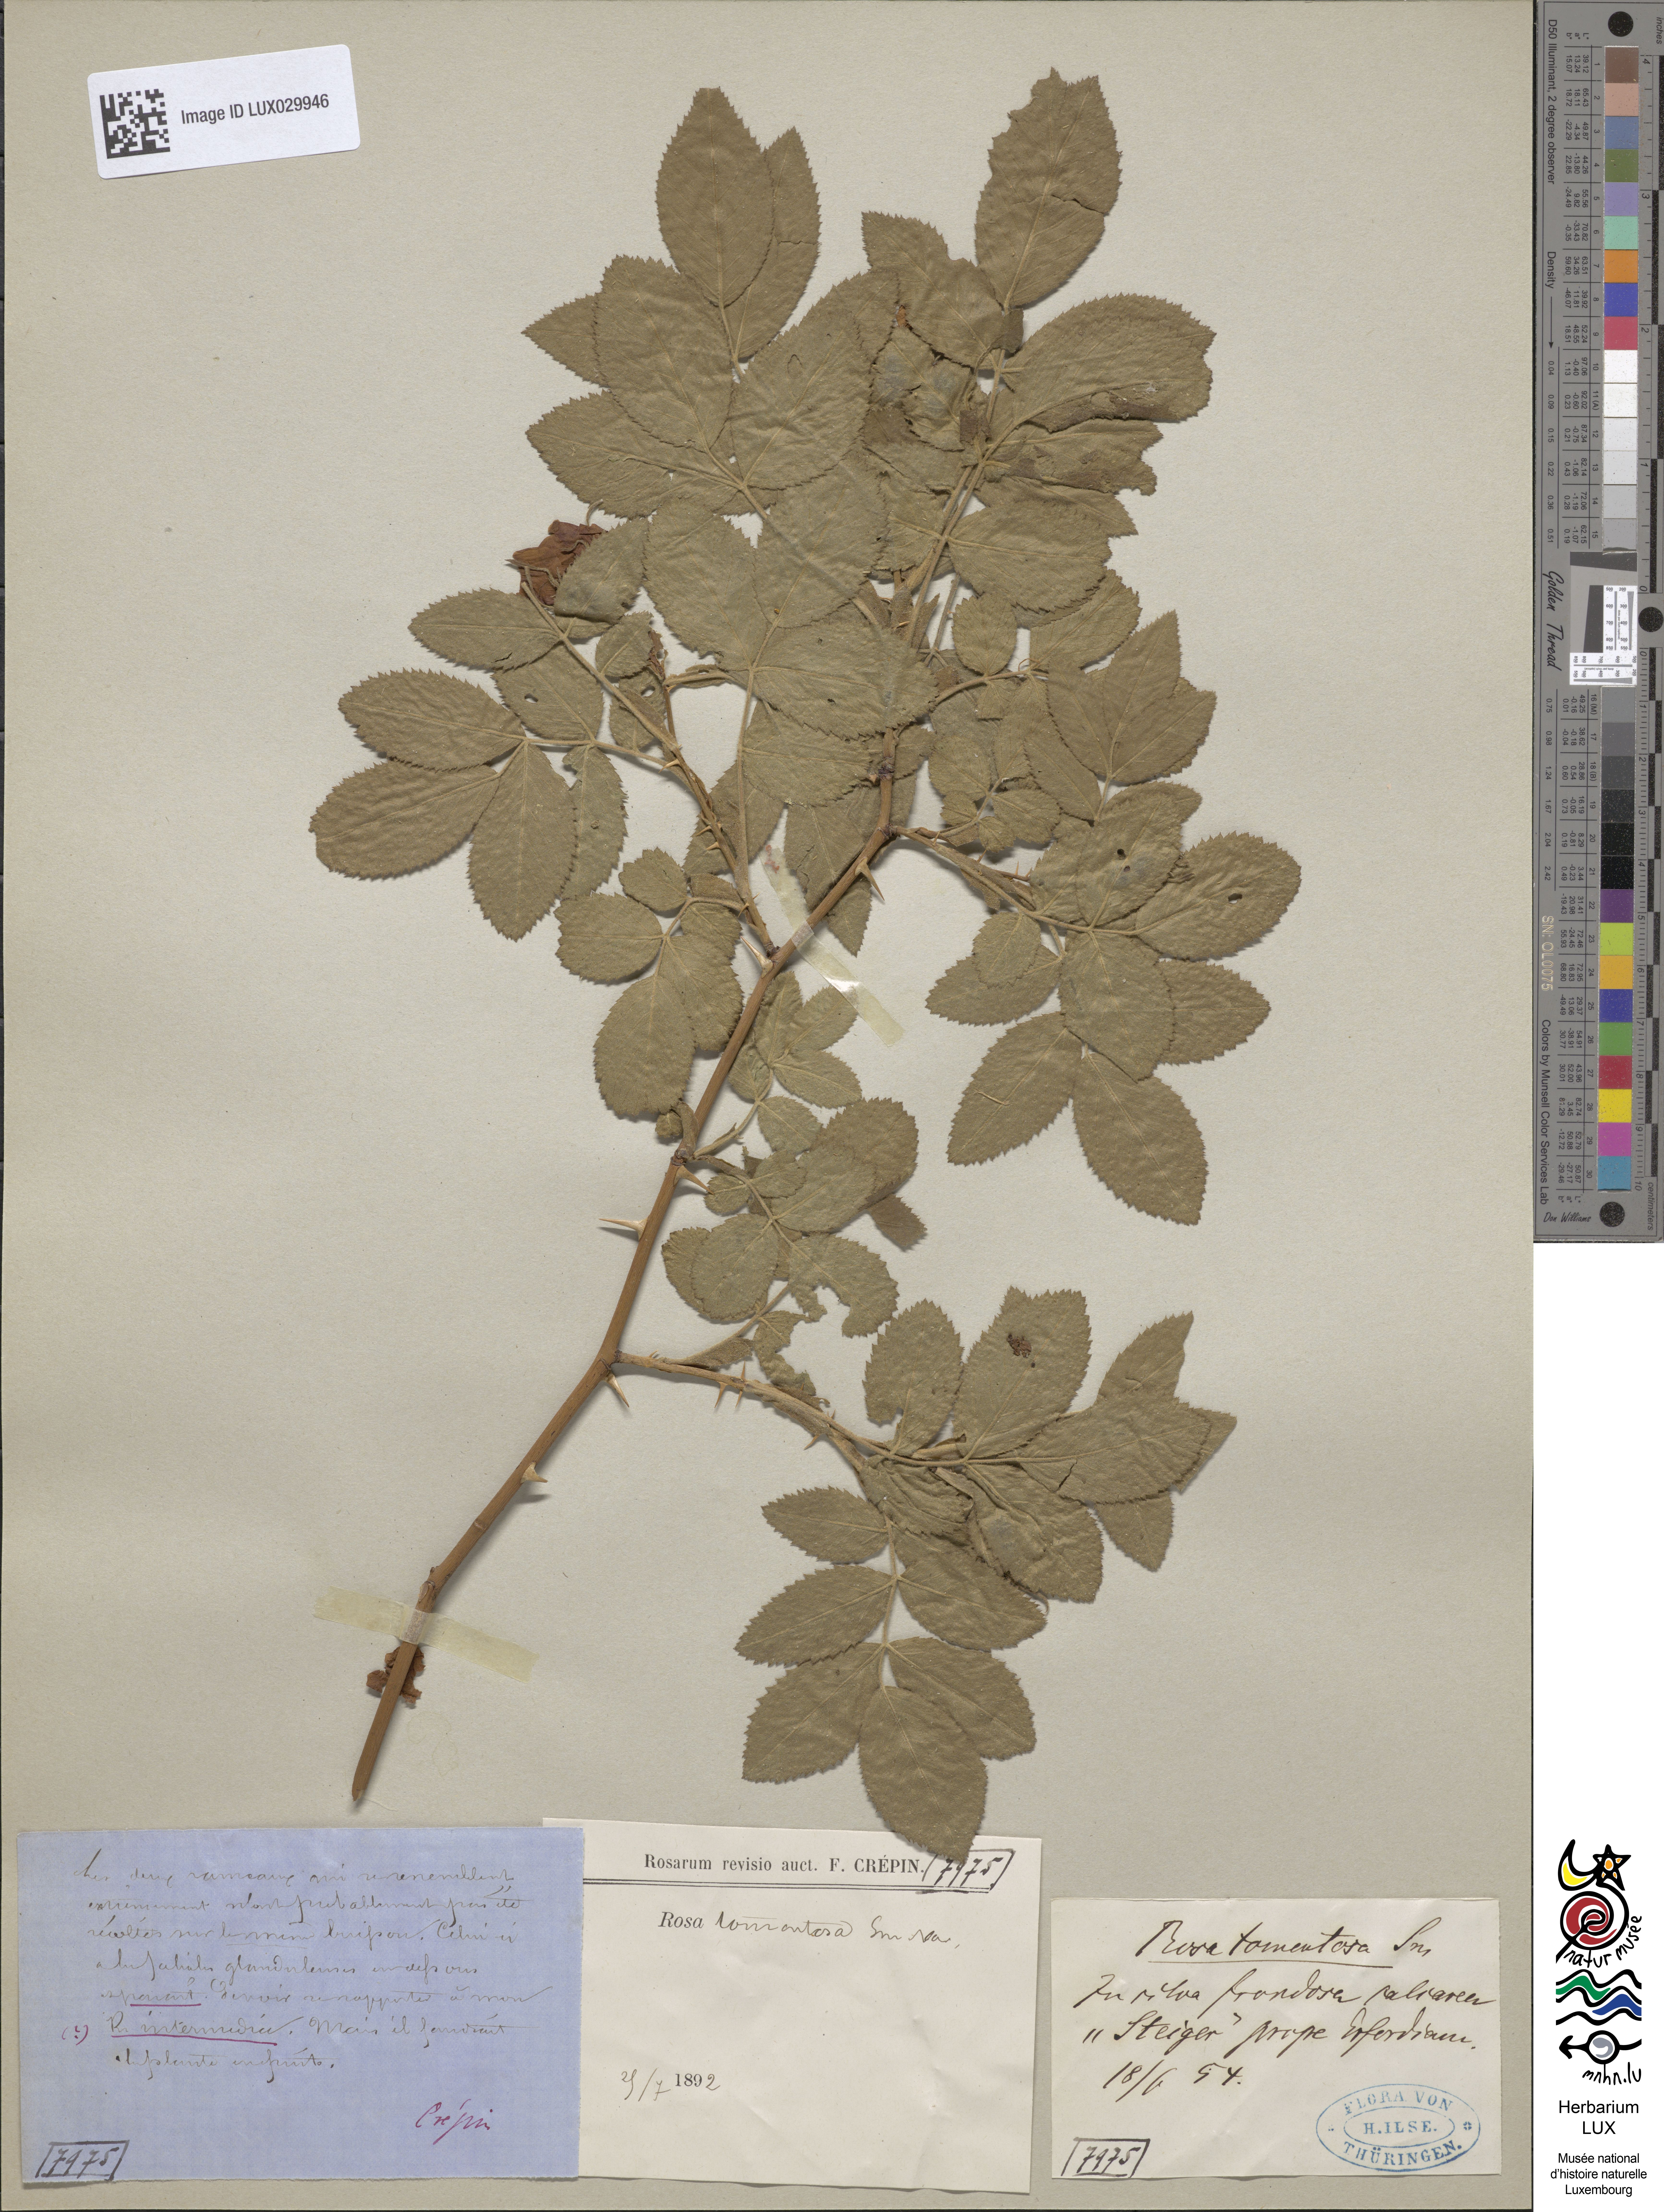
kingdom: Plantae
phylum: Tracheophyta
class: Magnoliopsida
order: Rosales
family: Rosaceae
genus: Rosa
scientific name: Rosa tomentosa
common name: Downy rose
